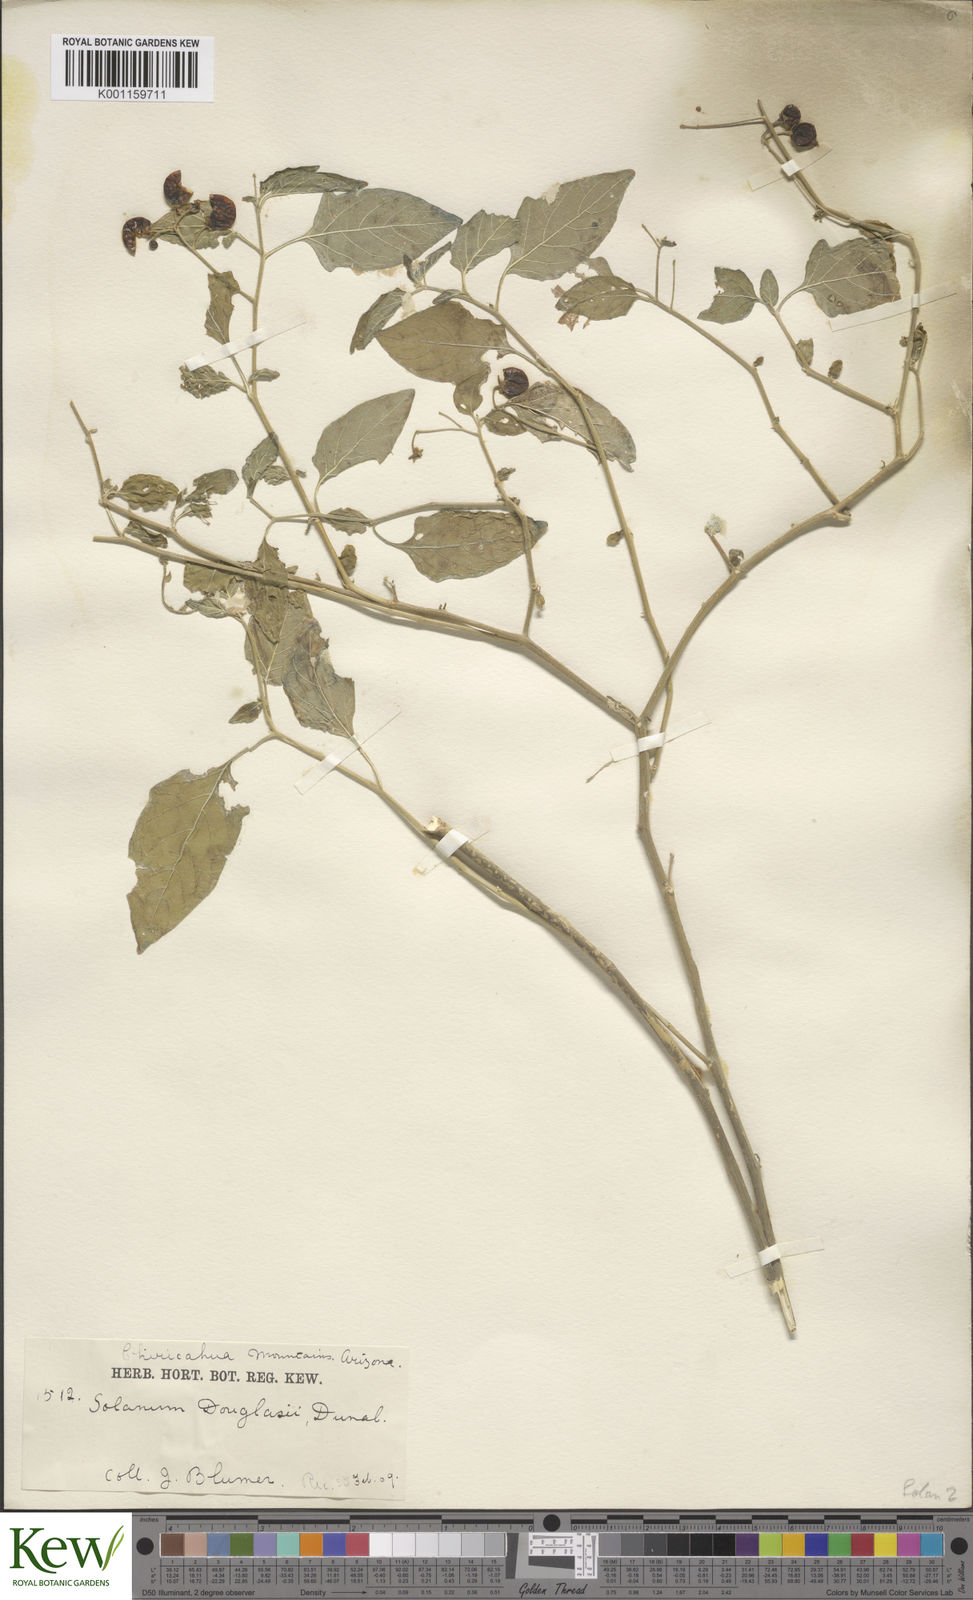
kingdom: Plantae
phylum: Tracheophyta
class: Magnoliopsida
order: Solanales
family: Solanaceae
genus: Solanum
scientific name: Solanum interius
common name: Plains black nightshade
